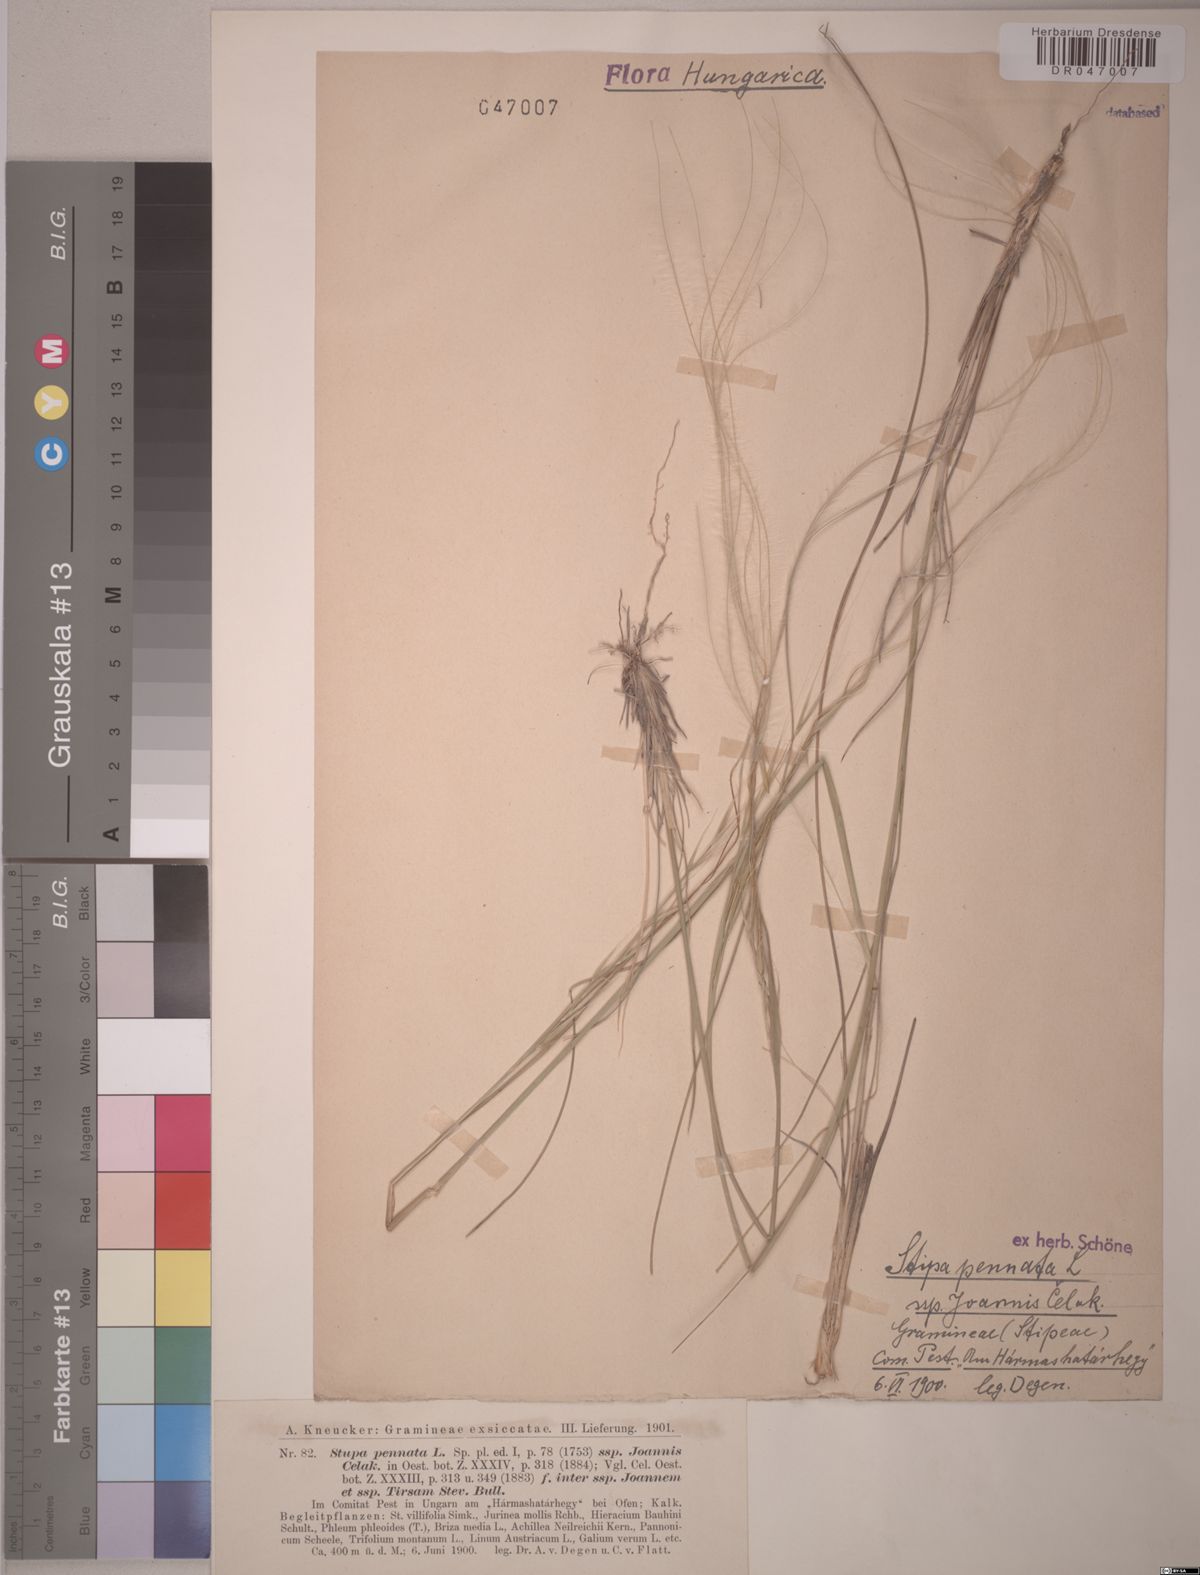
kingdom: Plantae
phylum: Tracheophyta
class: Liliopsida
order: Poales
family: Poaceae
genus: Stipa
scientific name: Stipa pennata
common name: European feather grass
